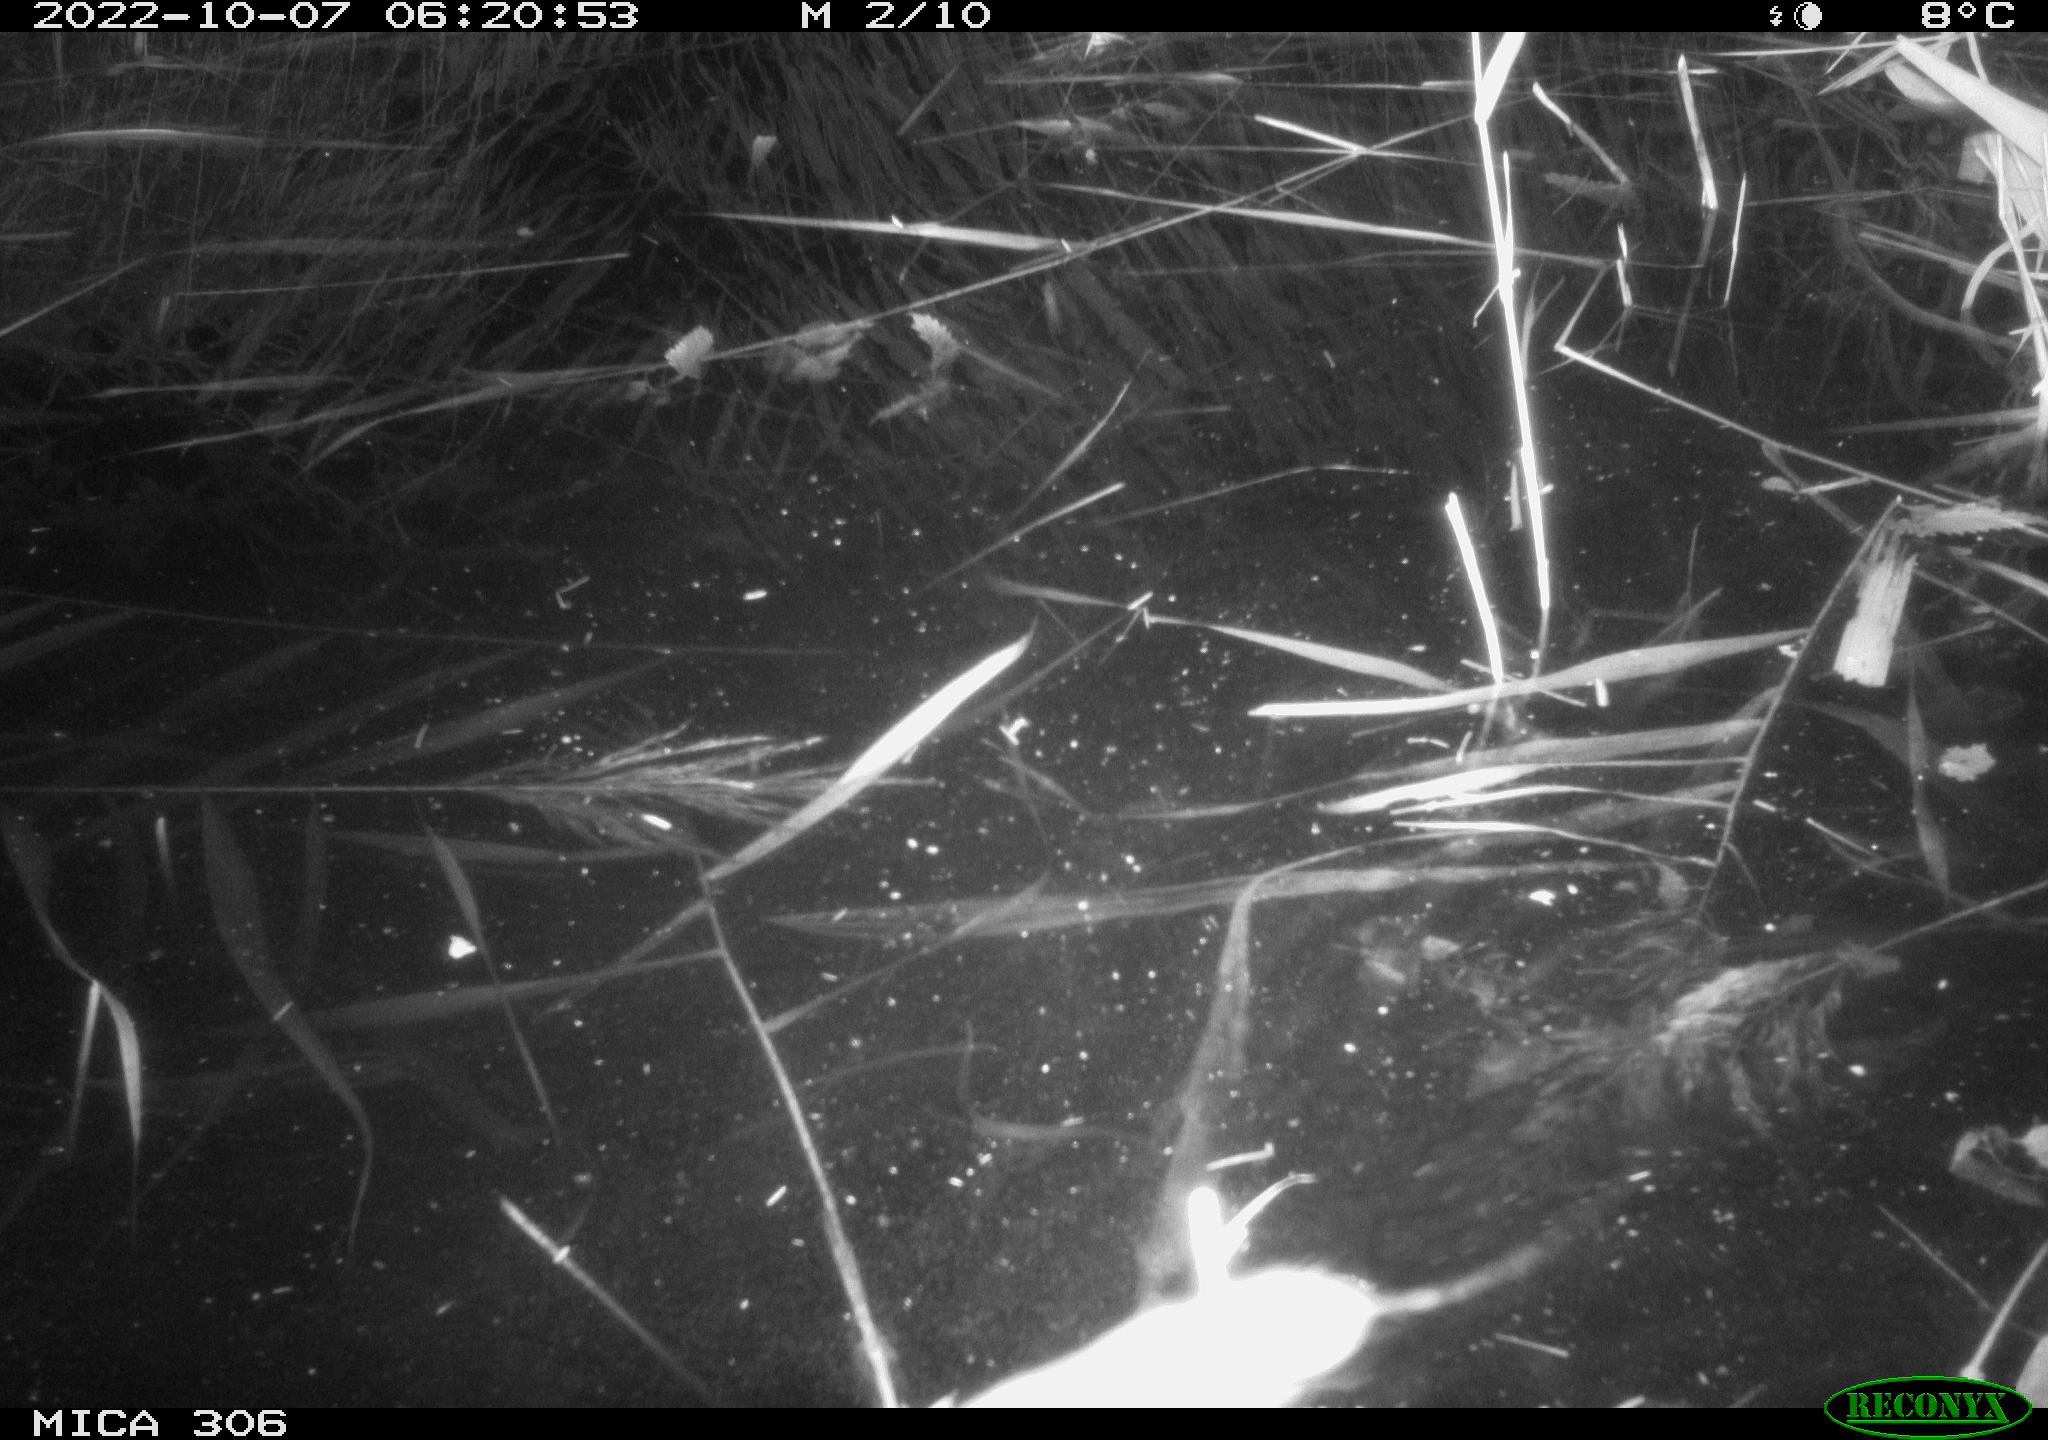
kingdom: Animalia
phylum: Chordata
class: Mammalia
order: Rodentia
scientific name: Rodentia
